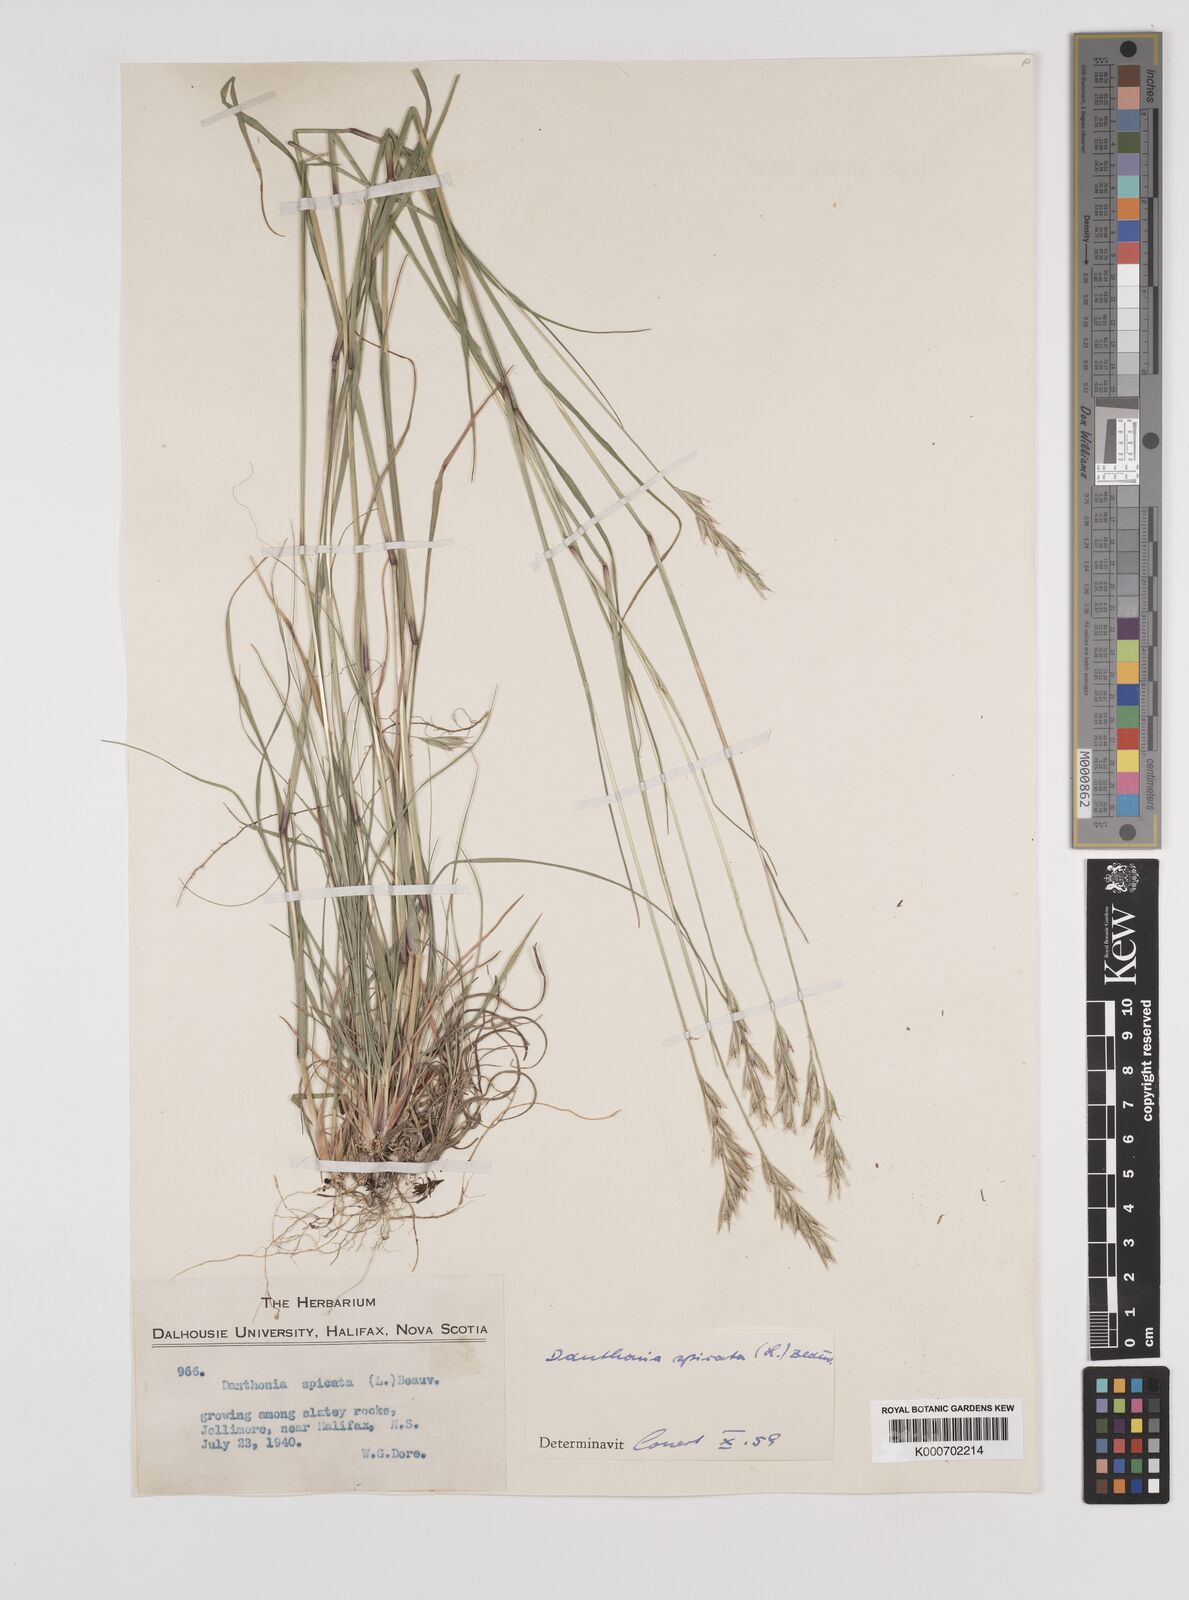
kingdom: Plantae
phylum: Tracheophyta
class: Liliopsida
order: Poales
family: Poaceae
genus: Danthonia
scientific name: Danthonia spicata
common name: Common wild oatgrass
